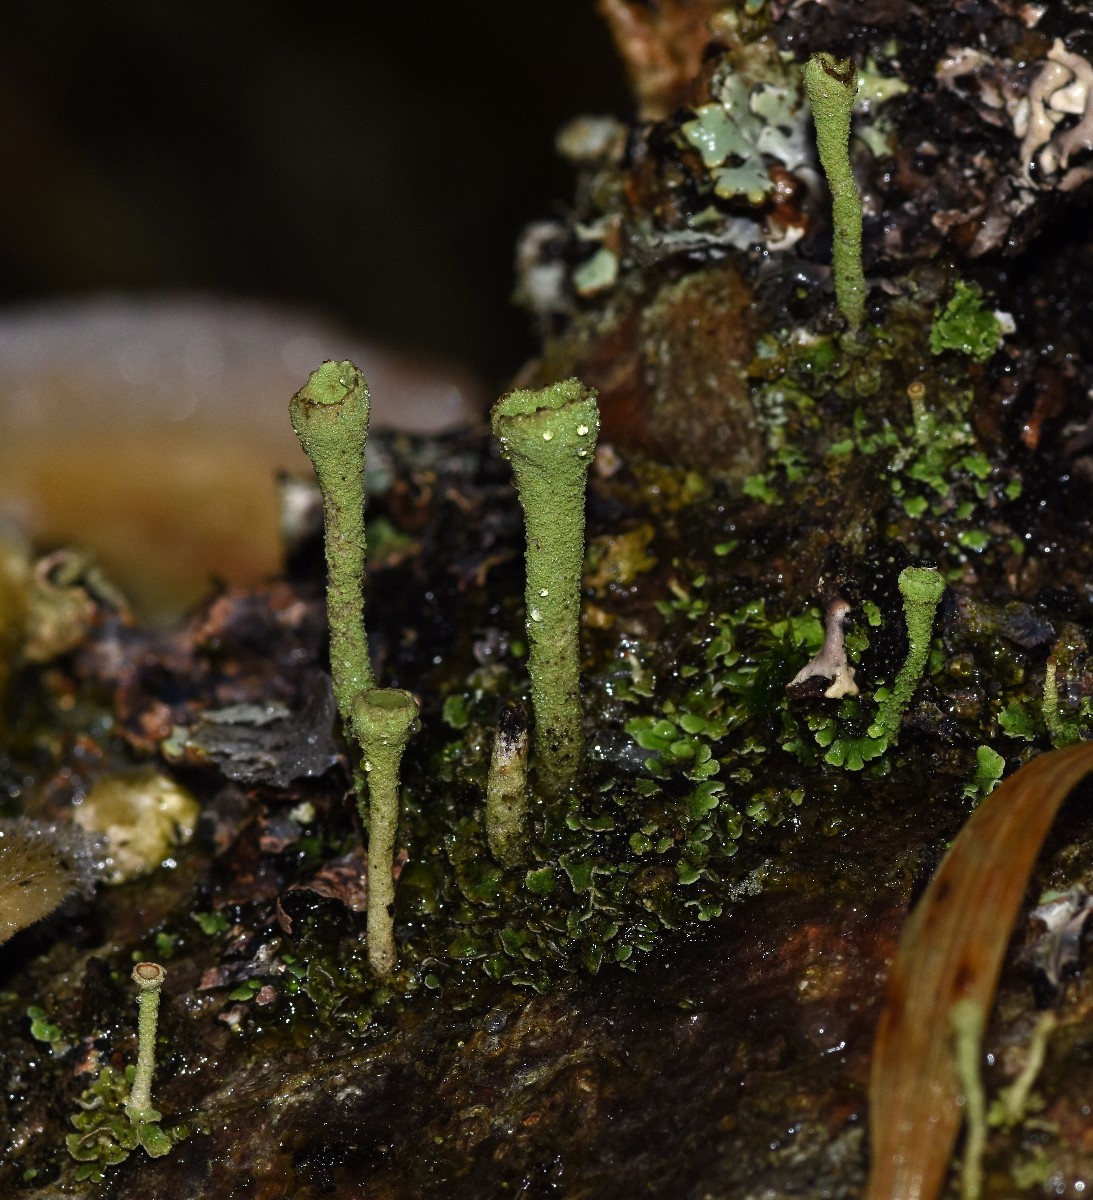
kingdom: Fungi
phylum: Ascomycota
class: Lecanoromycetes
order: Lecanorales
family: Cladoniaceae
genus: Cladonia
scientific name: Cladonia fimbriata
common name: bleggrøn bægerlav
